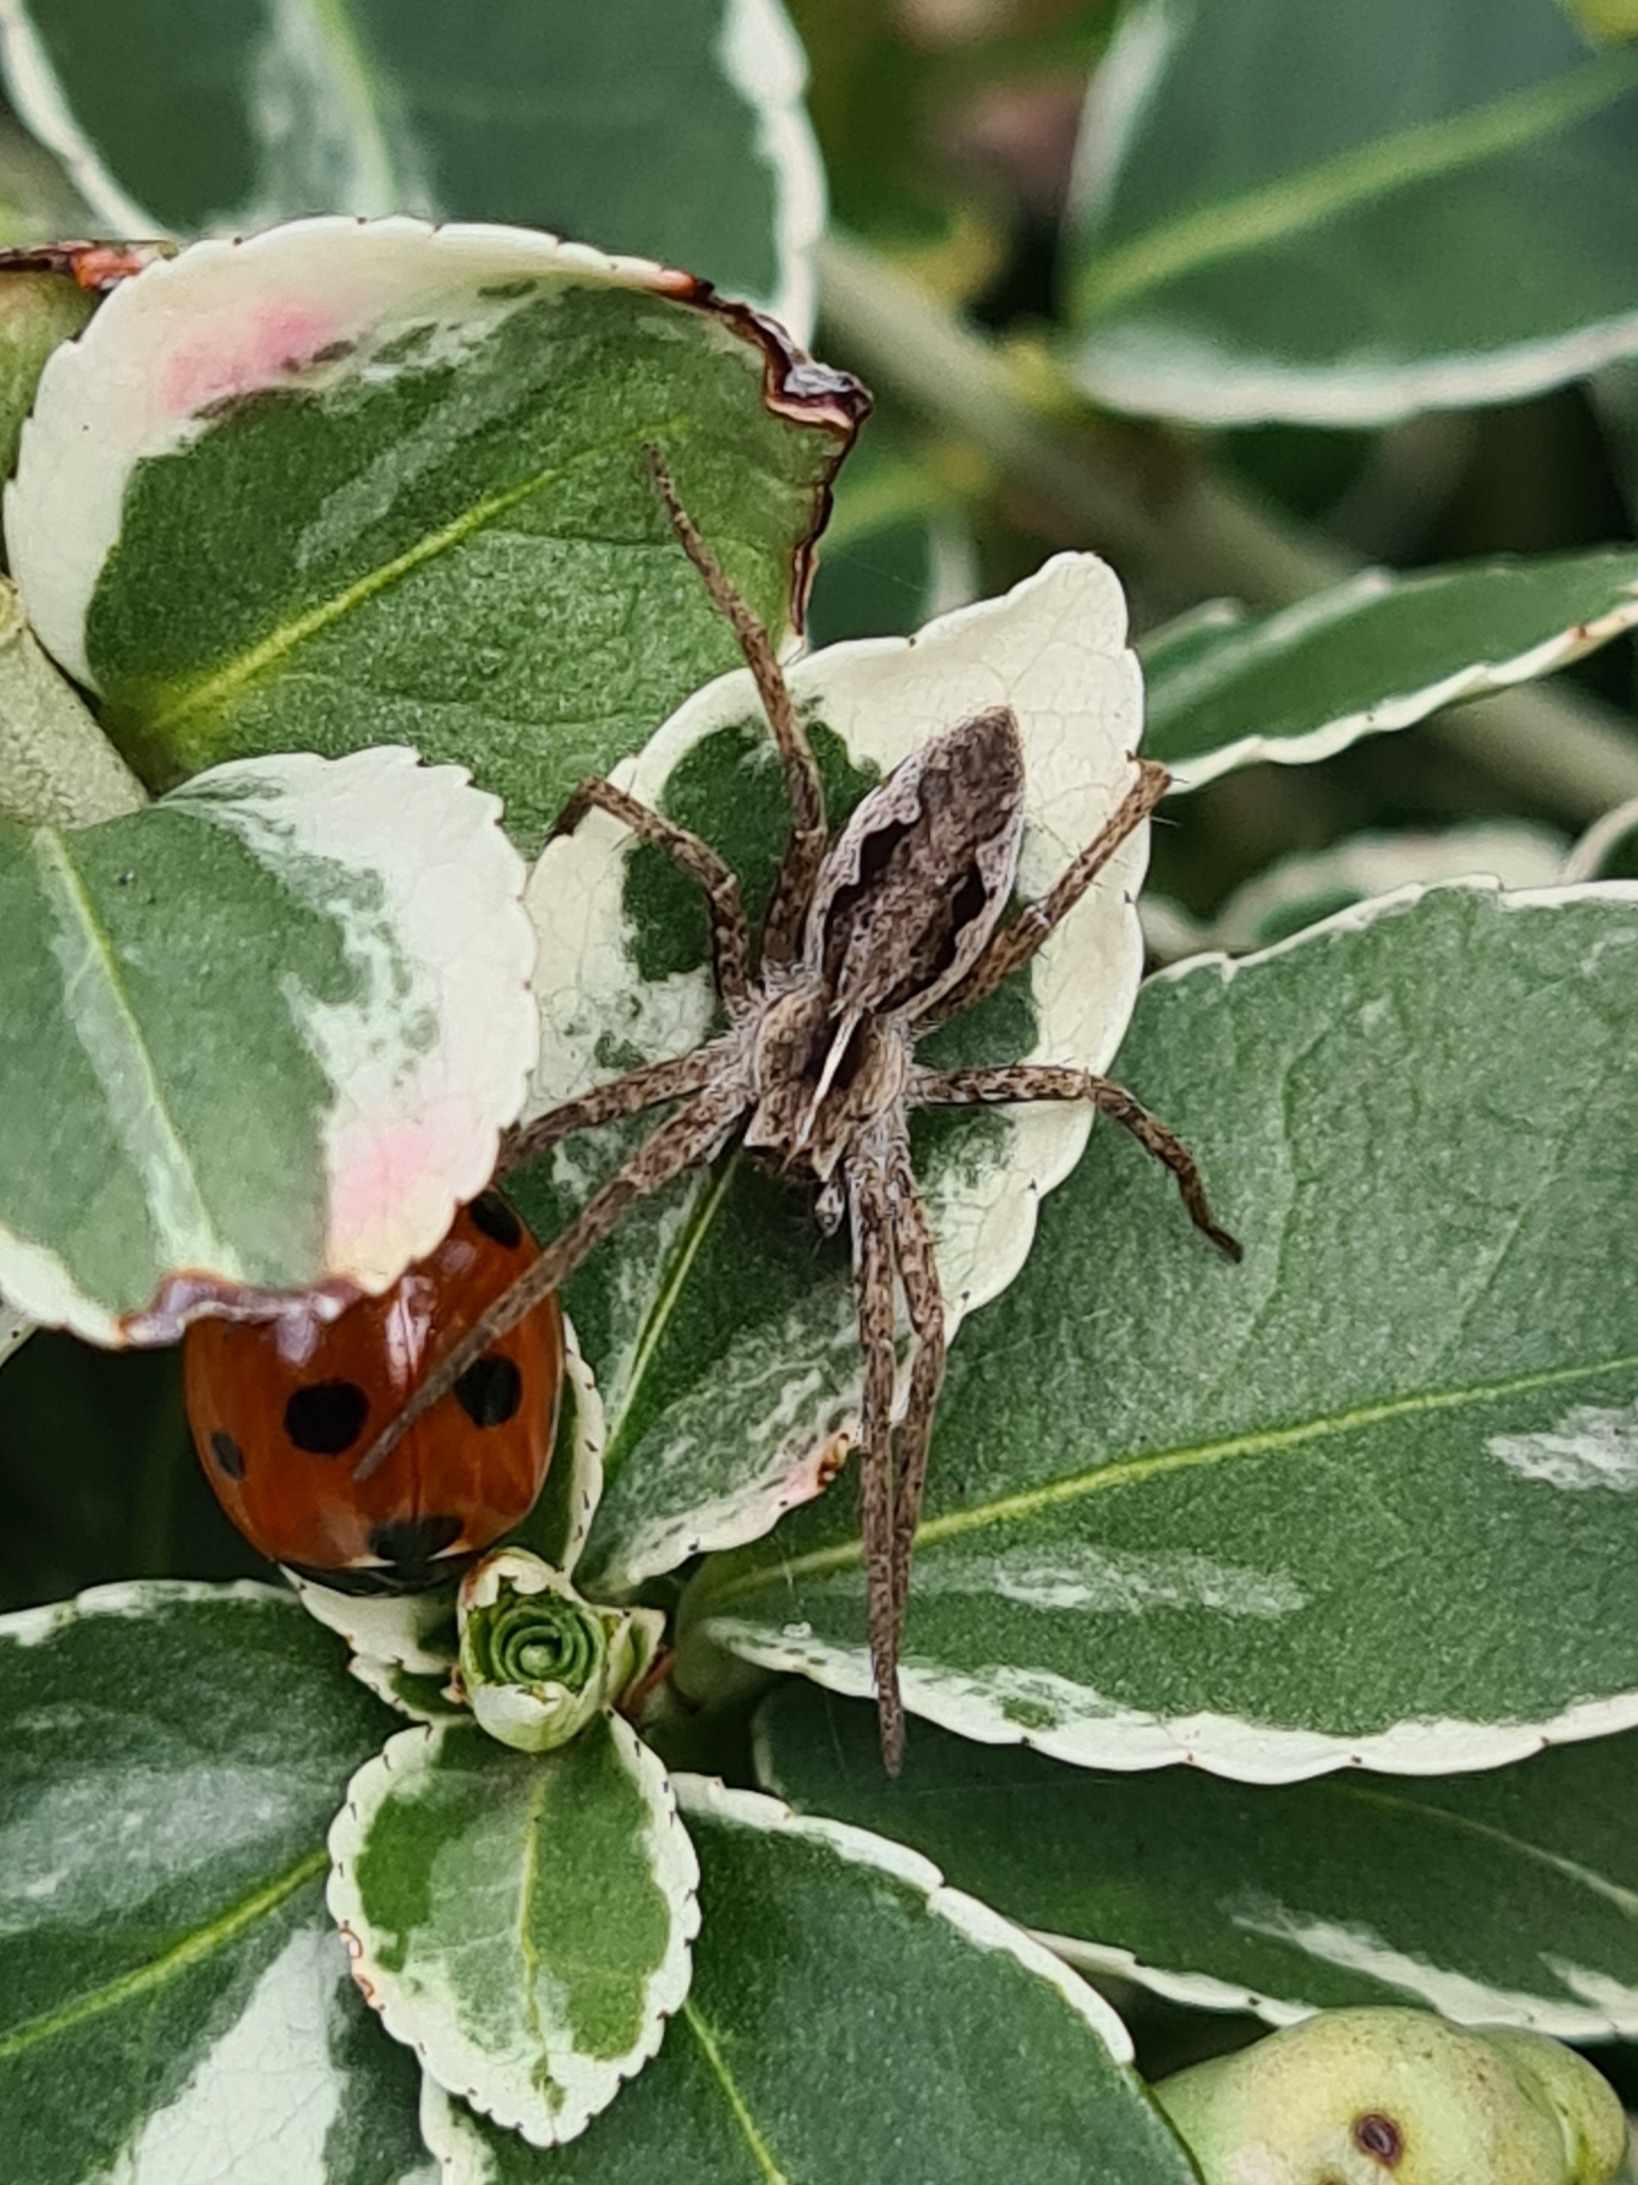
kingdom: Animalia
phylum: Arthropoda
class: Arachnida
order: Araneae
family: Pisauridae
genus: Pisaura
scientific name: Pisaura mirabilis
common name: Almindelig rovedderkop
